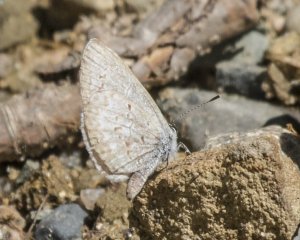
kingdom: Animalia
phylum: Arthropoda
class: Insecta
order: Lepidoptera
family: Lycaenidae
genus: Celastrina
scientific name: Celastrina serotina
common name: Cherry Gall Azure
